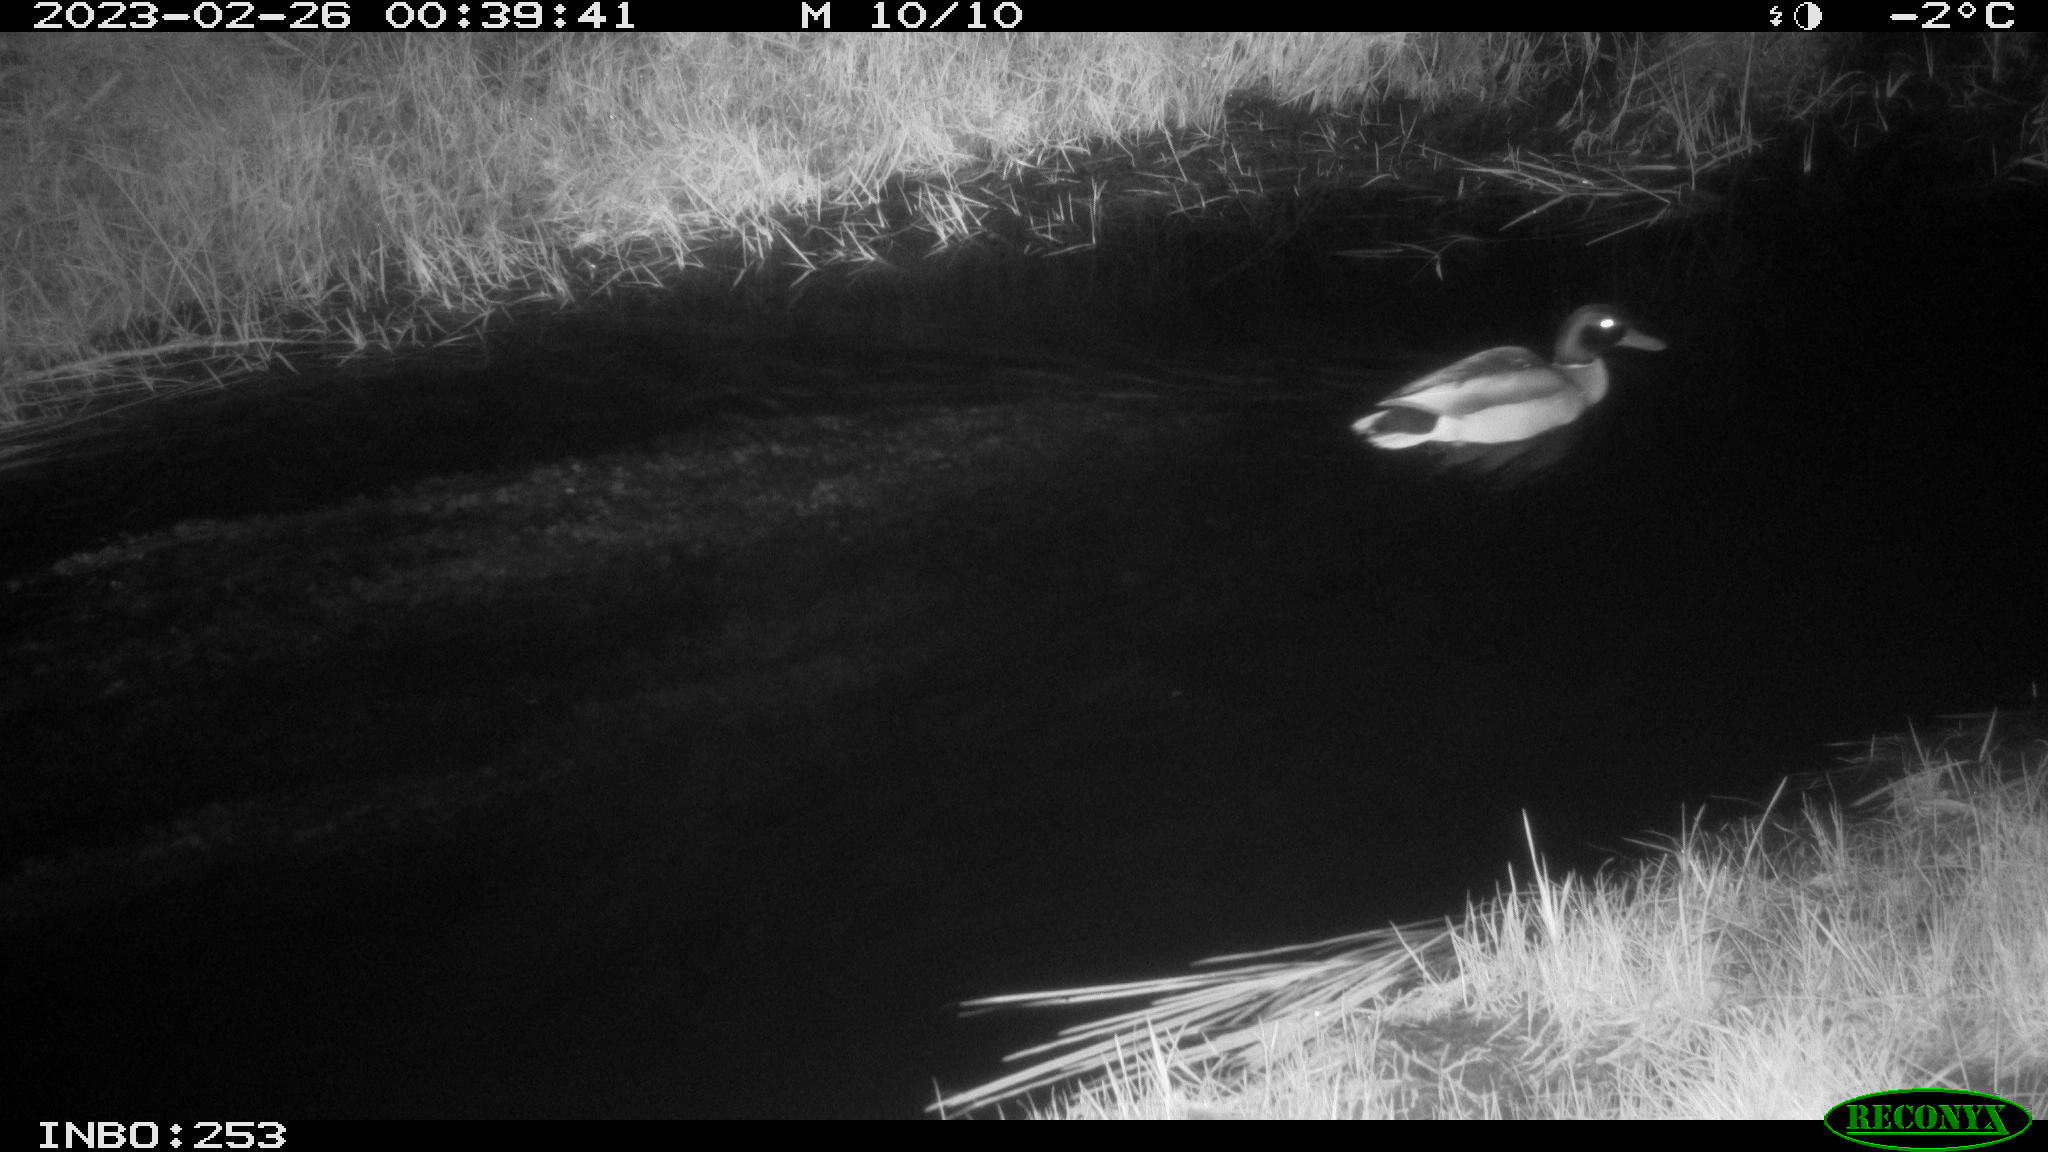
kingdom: Animalia
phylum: Chordata
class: Aves
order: Anseriformes
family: Anatidae
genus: Anas
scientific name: Anas
